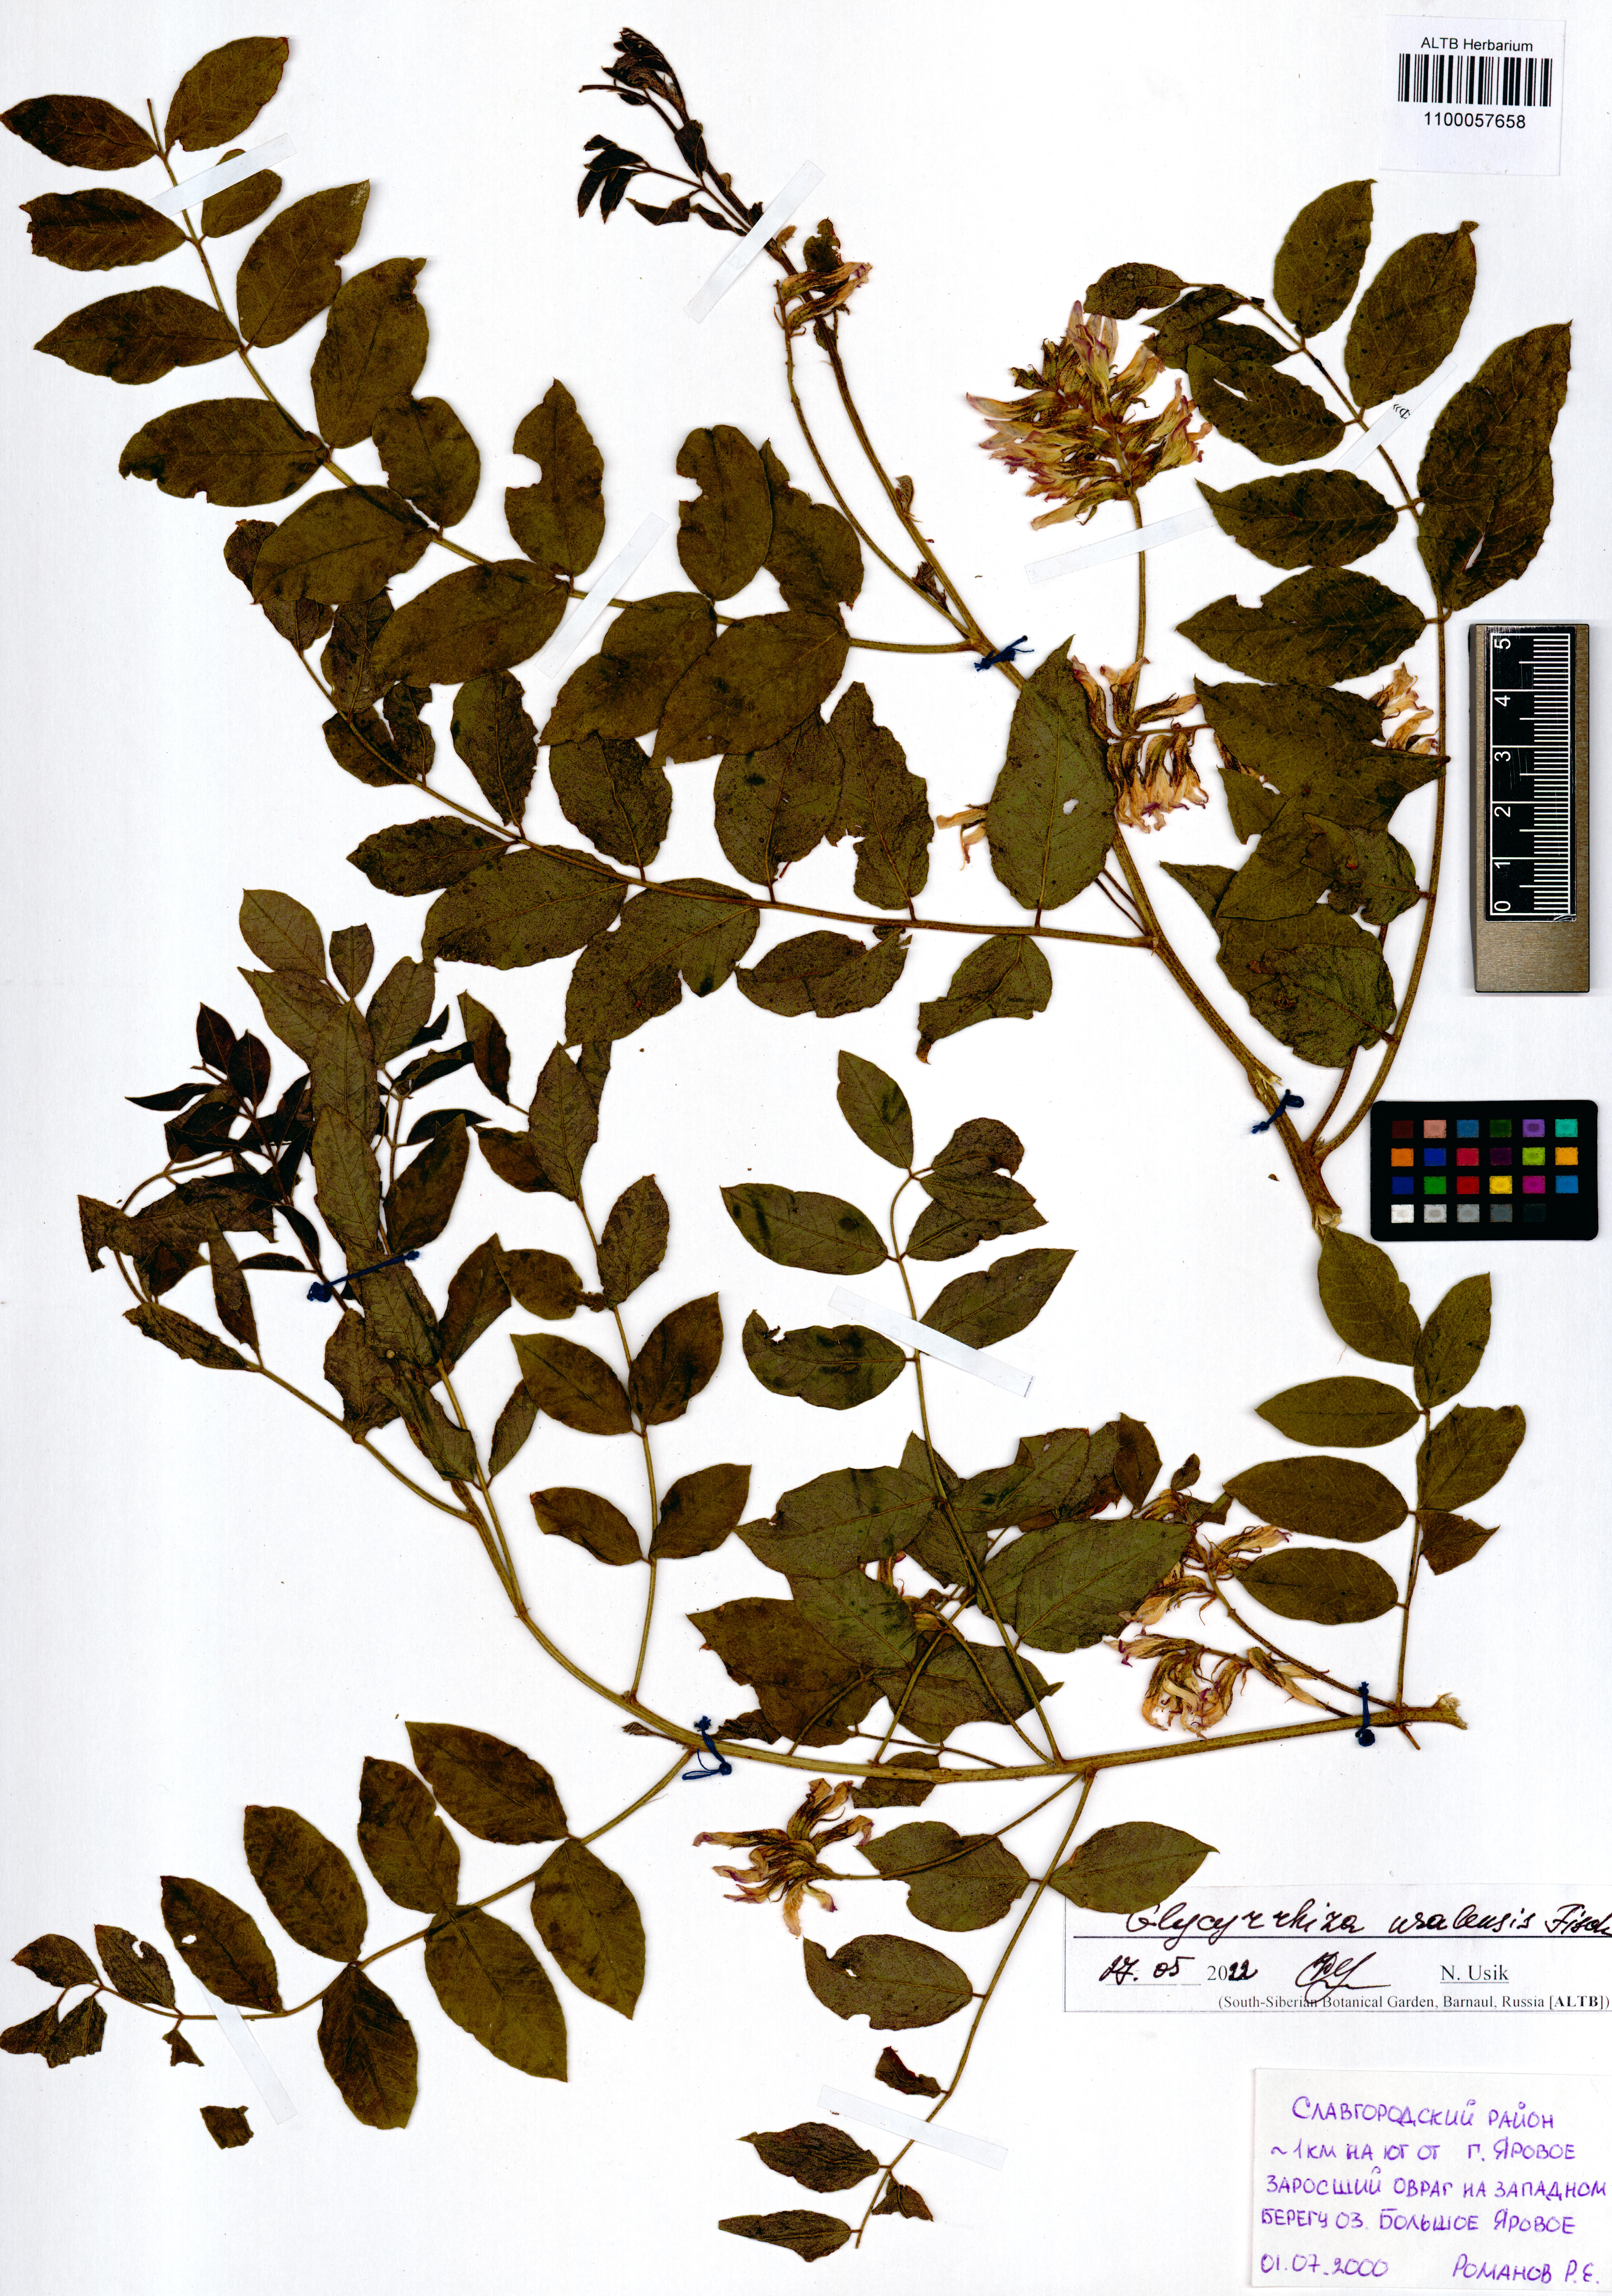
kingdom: Plantae
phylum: Tracheophyta
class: Magnoliopsida
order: Fabales
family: Fabaceae
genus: Glycyrrhiza
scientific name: Glycyrrhiza uralensis
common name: Chinese licorice
